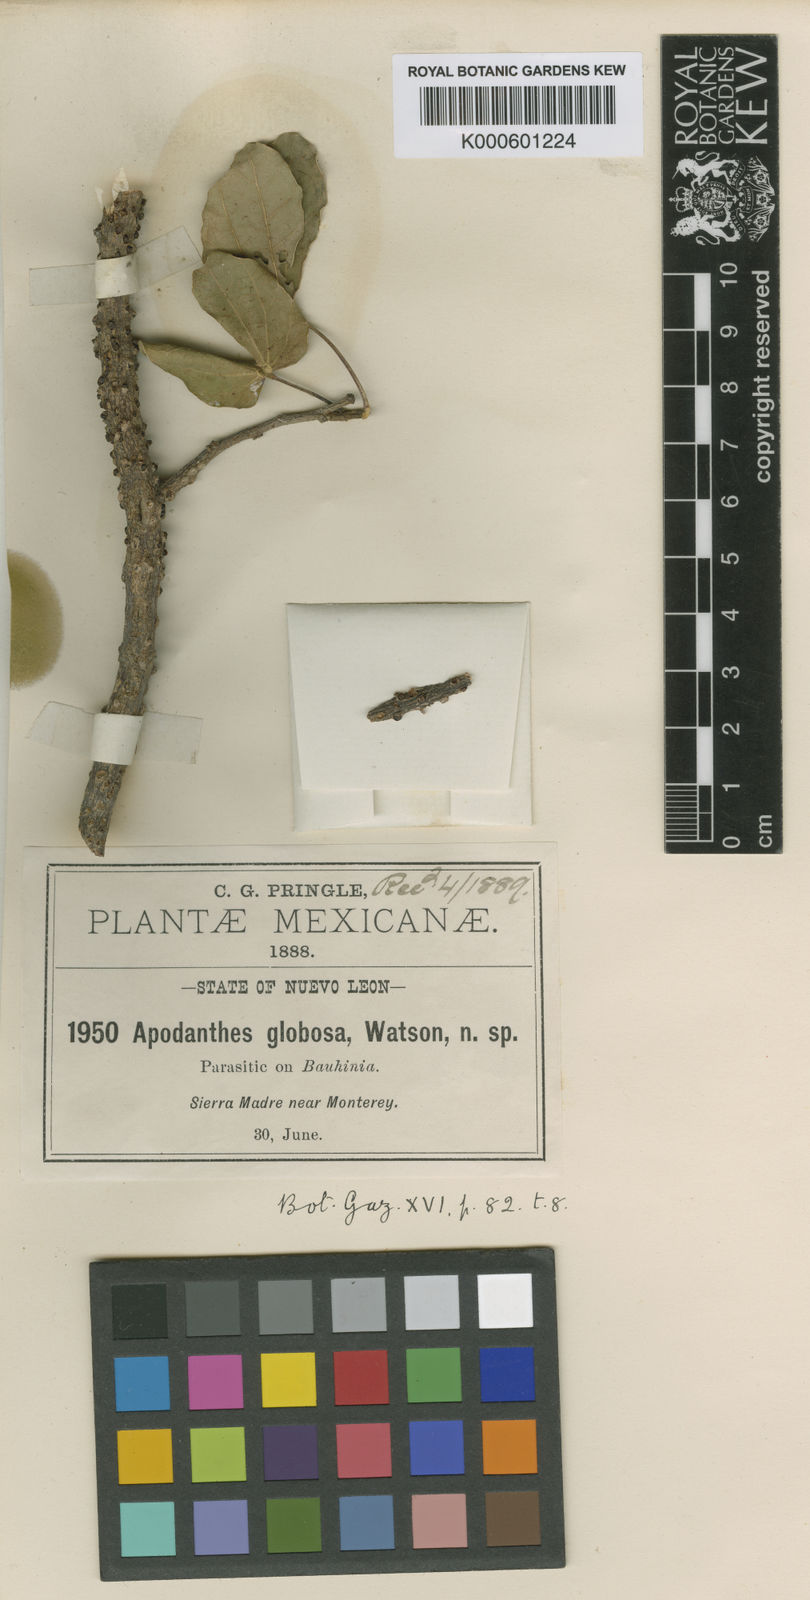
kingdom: Plantae
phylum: Tracheophyta
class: Magnoliopsida
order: Cucurbitales
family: Apodanthaceae
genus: Pilostyles
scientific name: Pilostyles
